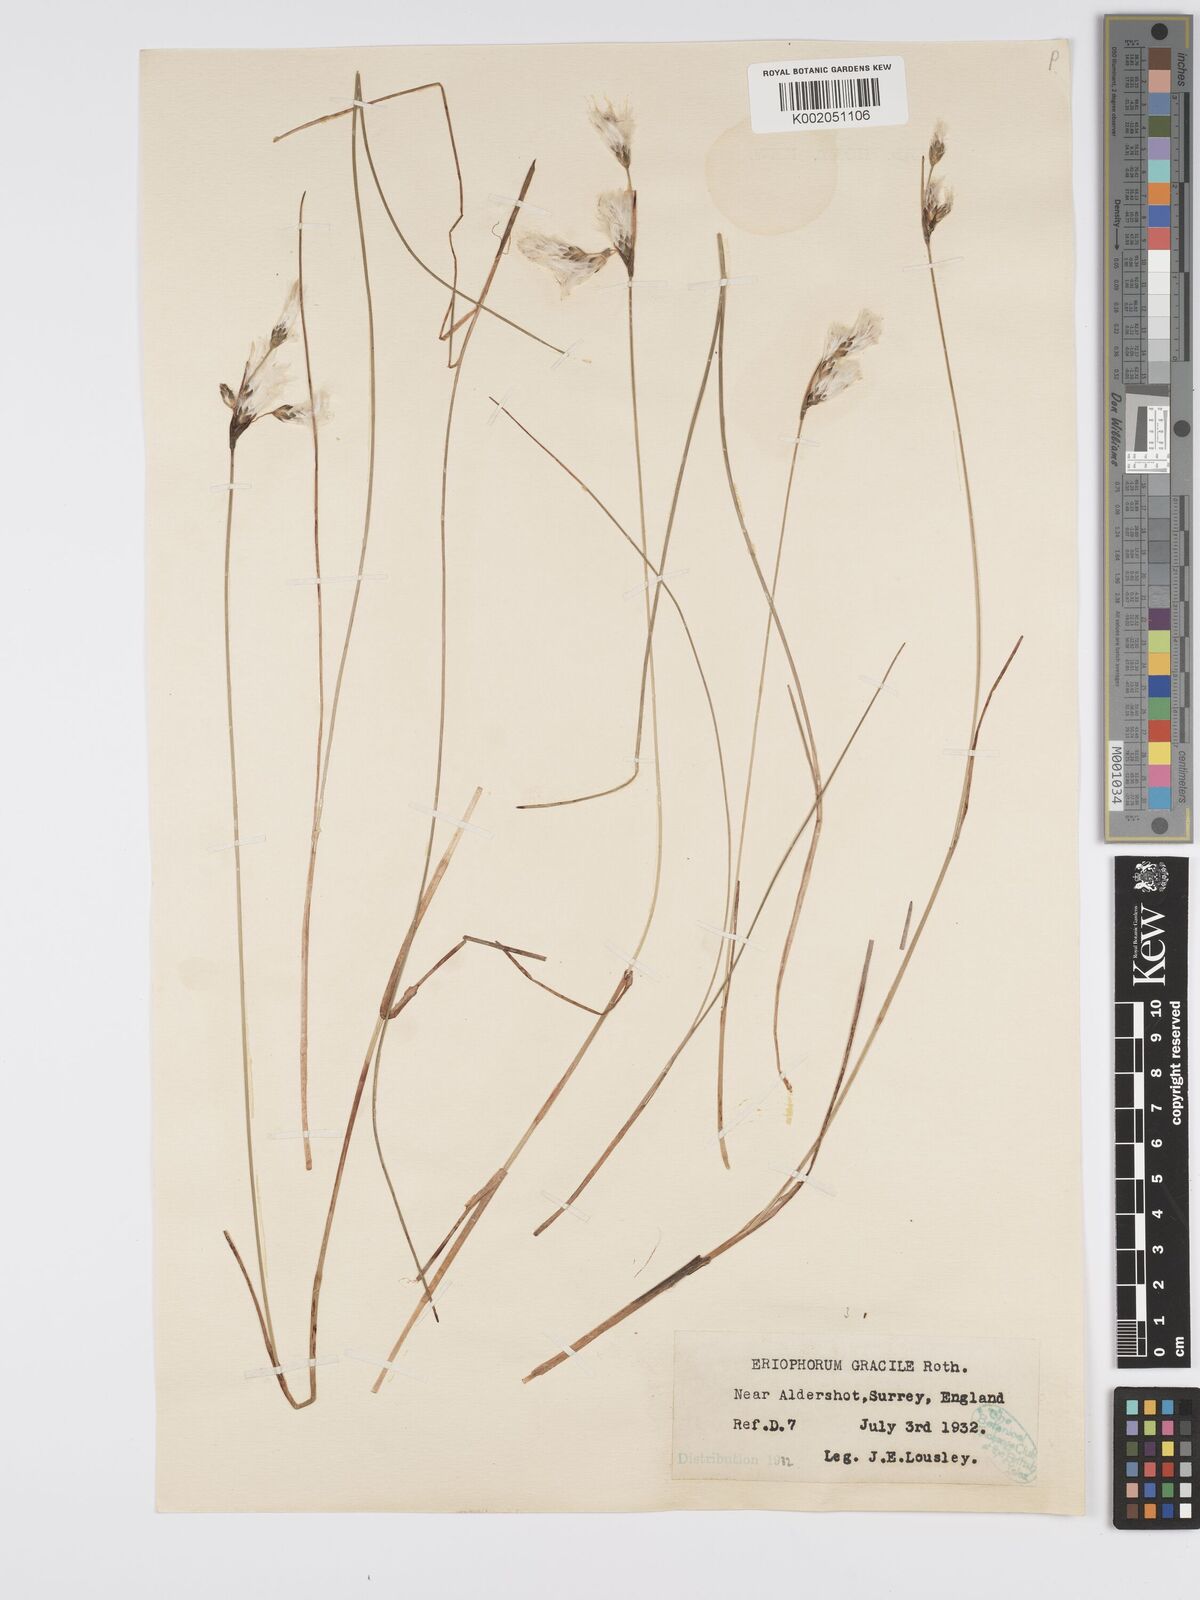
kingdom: Plantae
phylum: Tracheophyta
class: Liliopsida
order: Poales
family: Cyperaceae
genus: Eriophorum
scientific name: Eriophorum gracile
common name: Slender cottongrass
